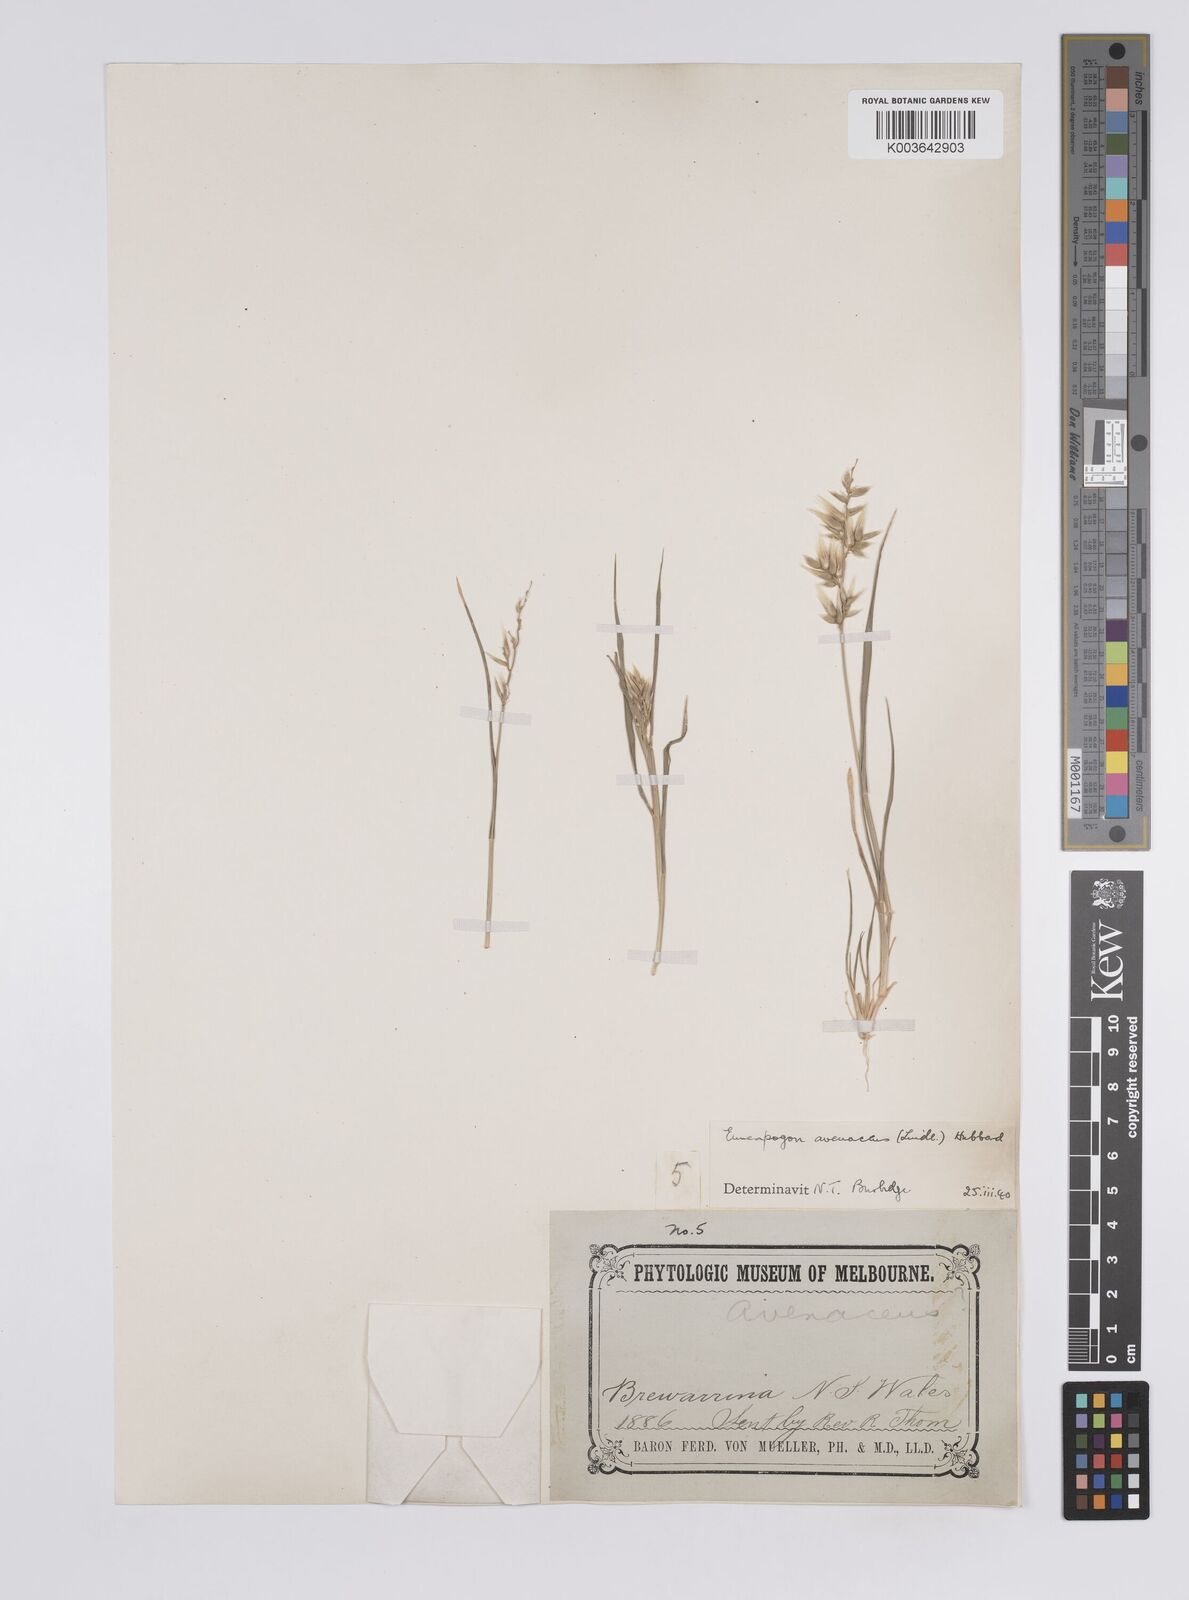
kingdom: Plantae
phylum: Tracheophyta
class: Liliopsida
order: Poales
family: Poaceae
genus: Enneapogon
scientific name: Enneapogon avenaceus
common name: Hairy oat grass
